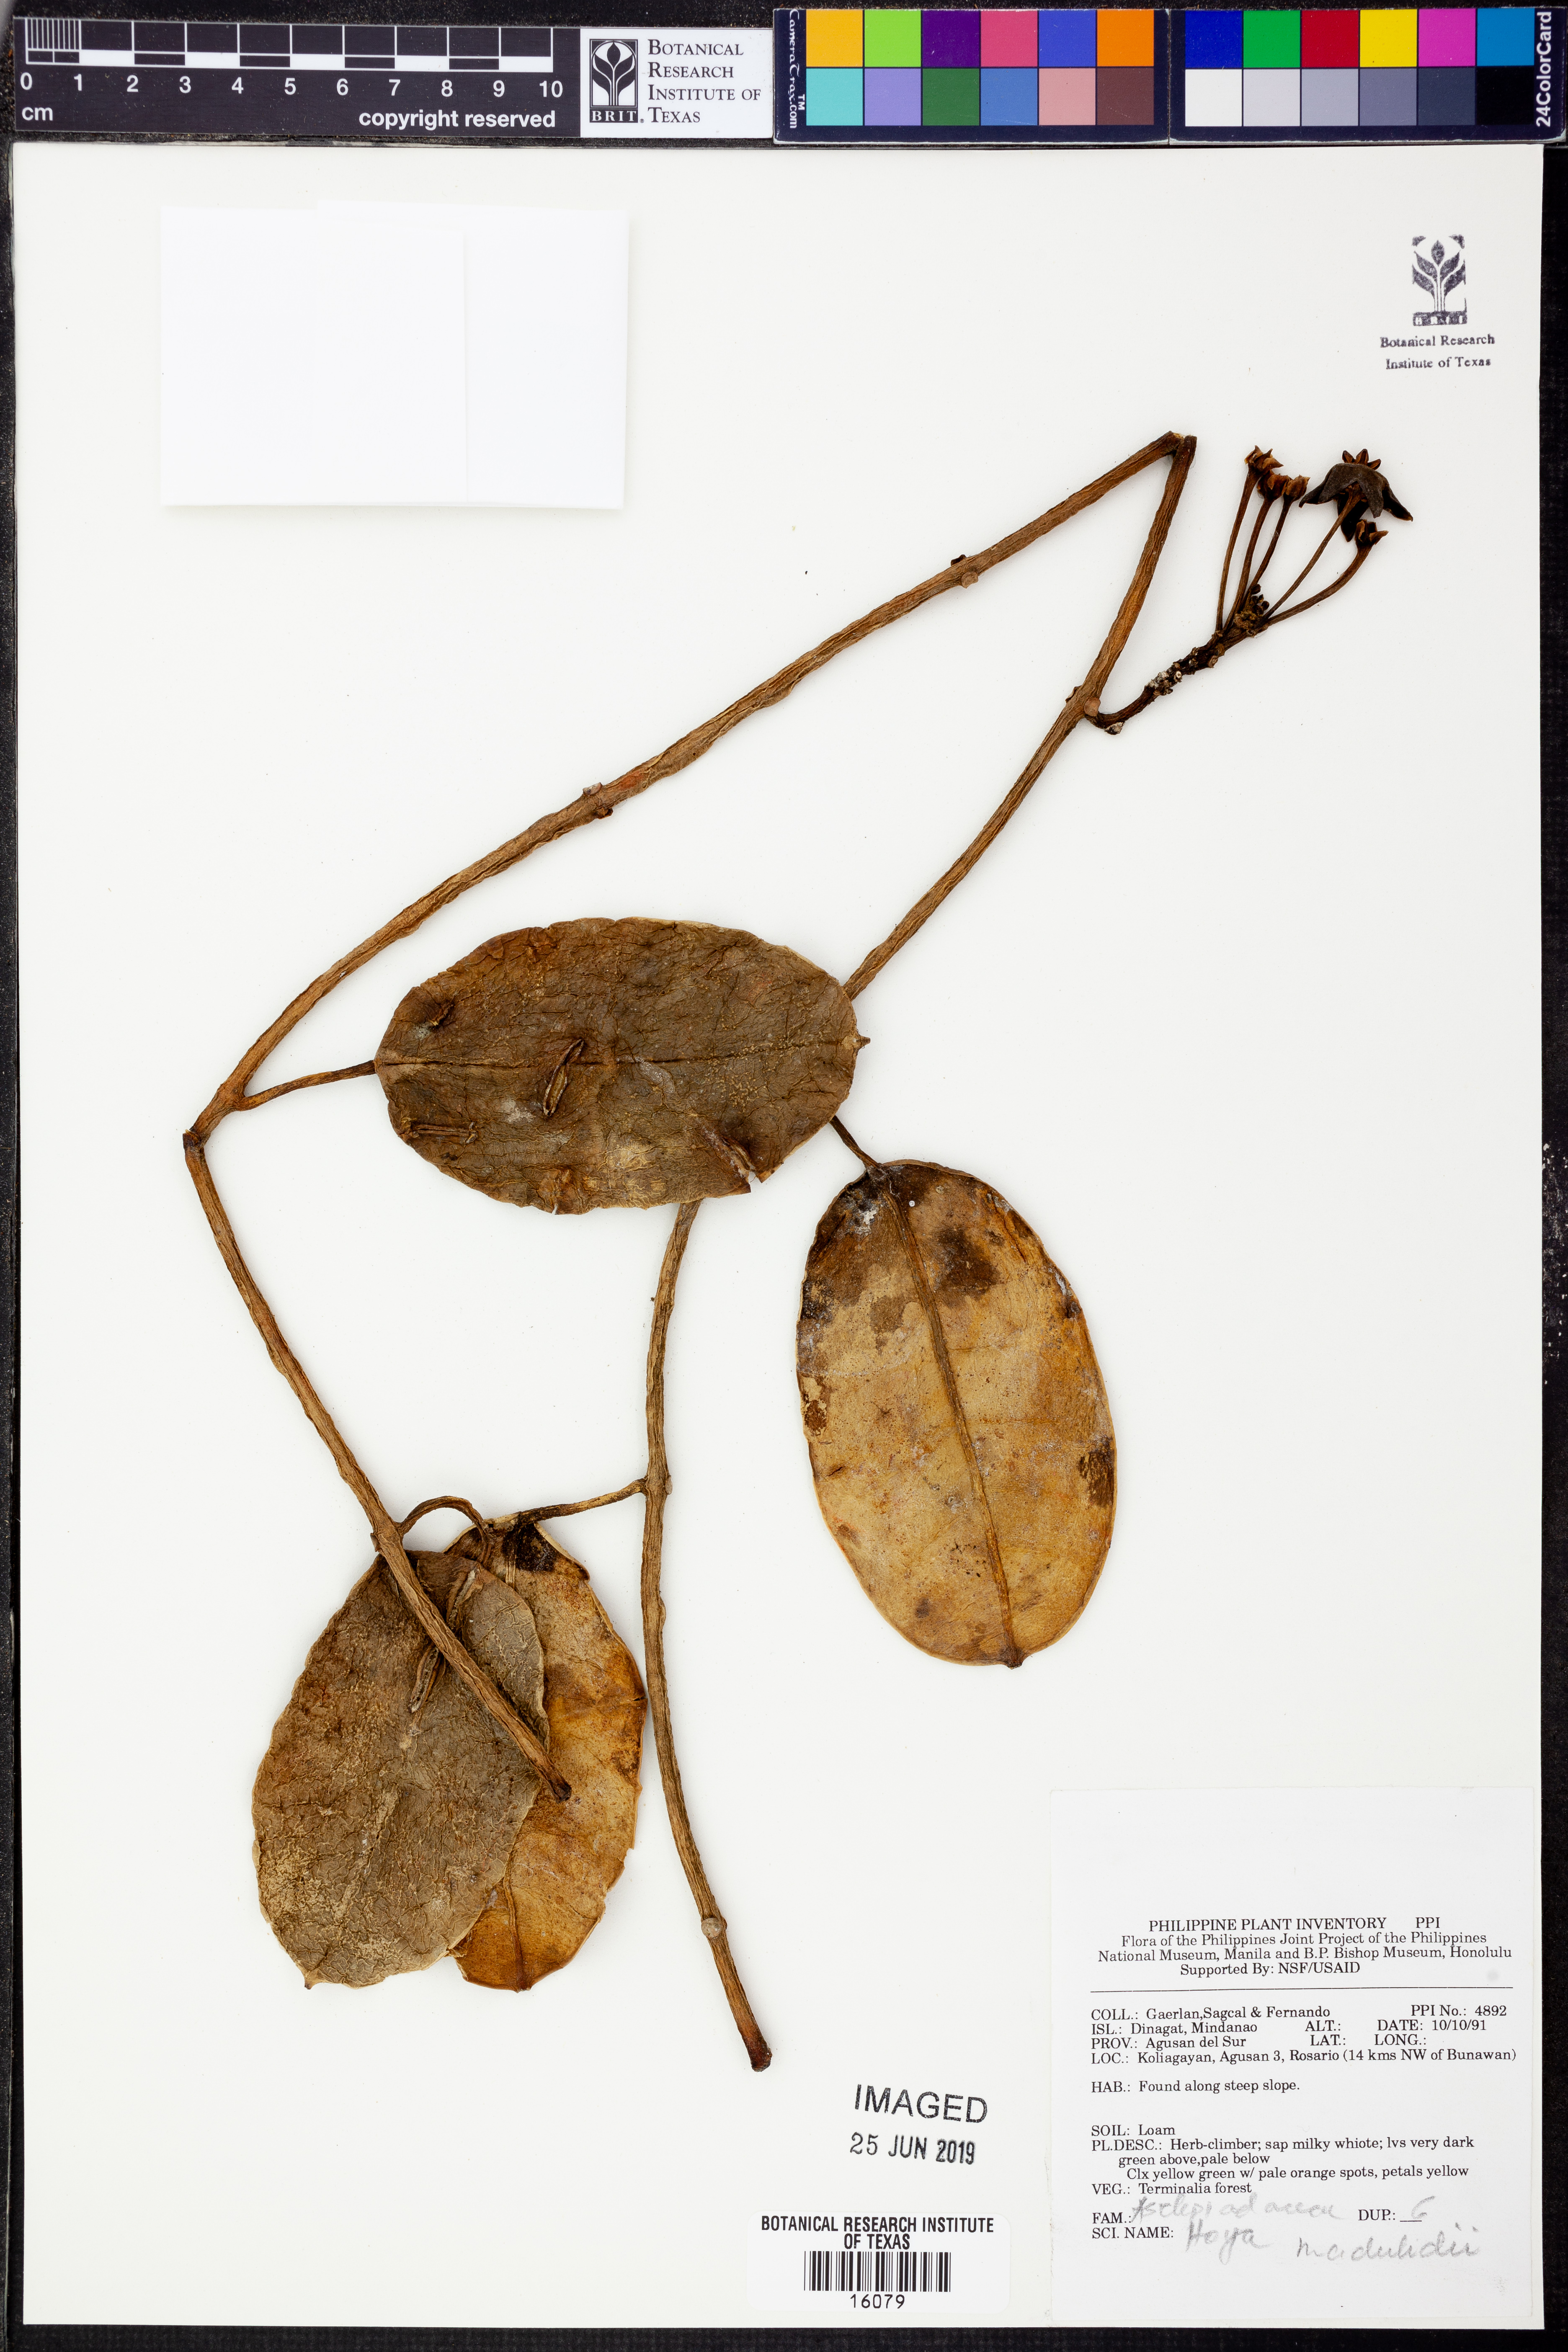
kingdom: Plantae
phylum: Tracheophyta
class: Magnoliopsida
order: Gentianales
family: Apocynaceae
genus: Eriostemma
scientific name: Eriostemma madulidii
